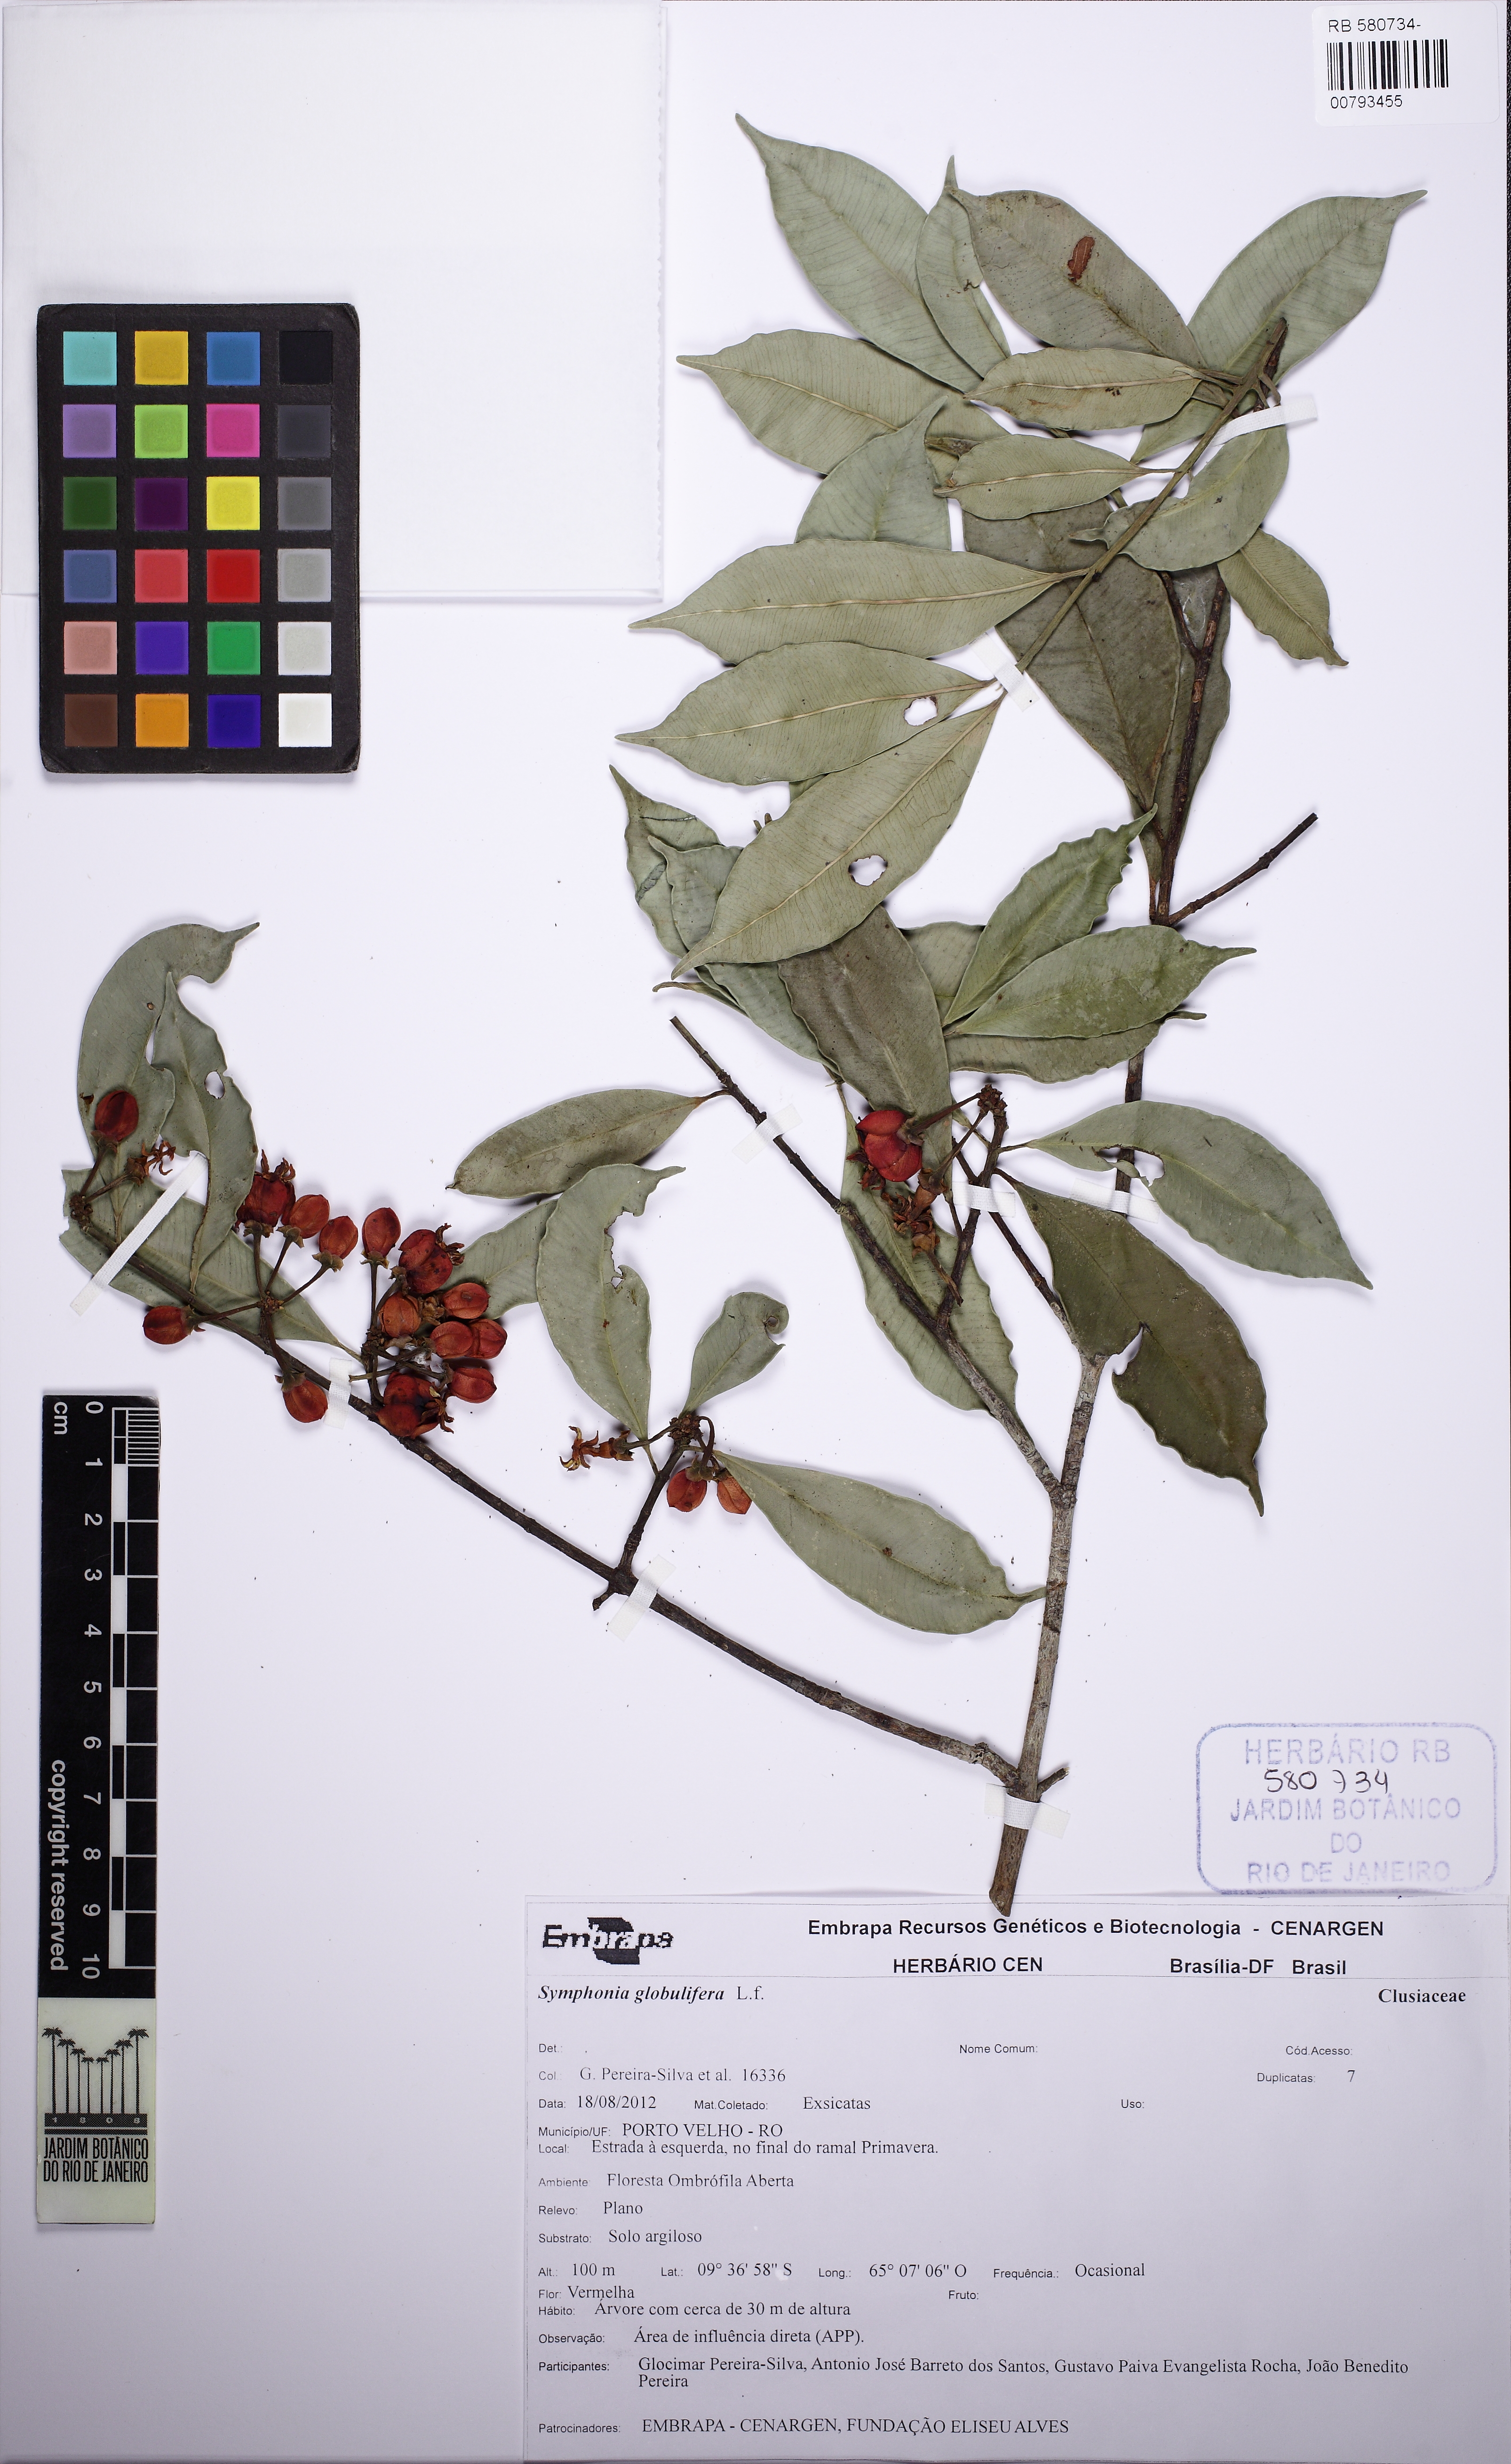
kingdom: Plantae
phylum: Tracheophyta
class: Magnoliopsida
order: Malpighiales
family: Clusiaceae
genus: Symphonia
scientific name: Symphonia globulifera
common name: Boarwood
